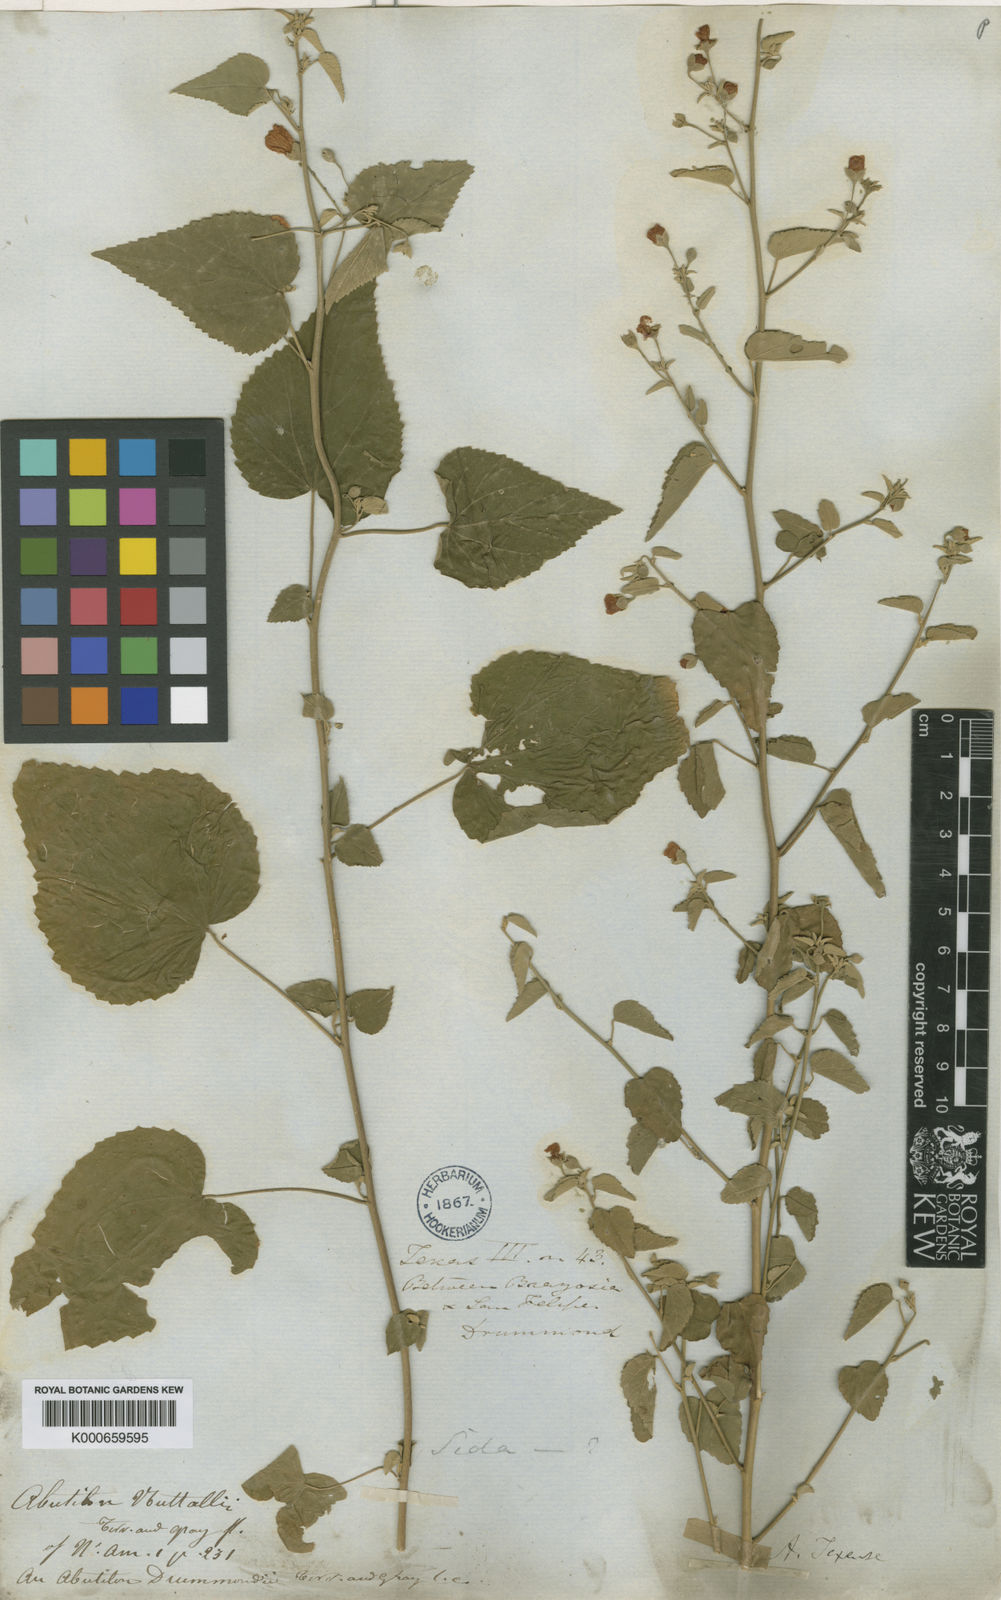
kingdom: Plantae
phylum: Tracheophyta
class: Magnoliopsida
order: Malvales
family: Malvaceae
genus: Abutilon
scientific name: Abutilon fruticosum
